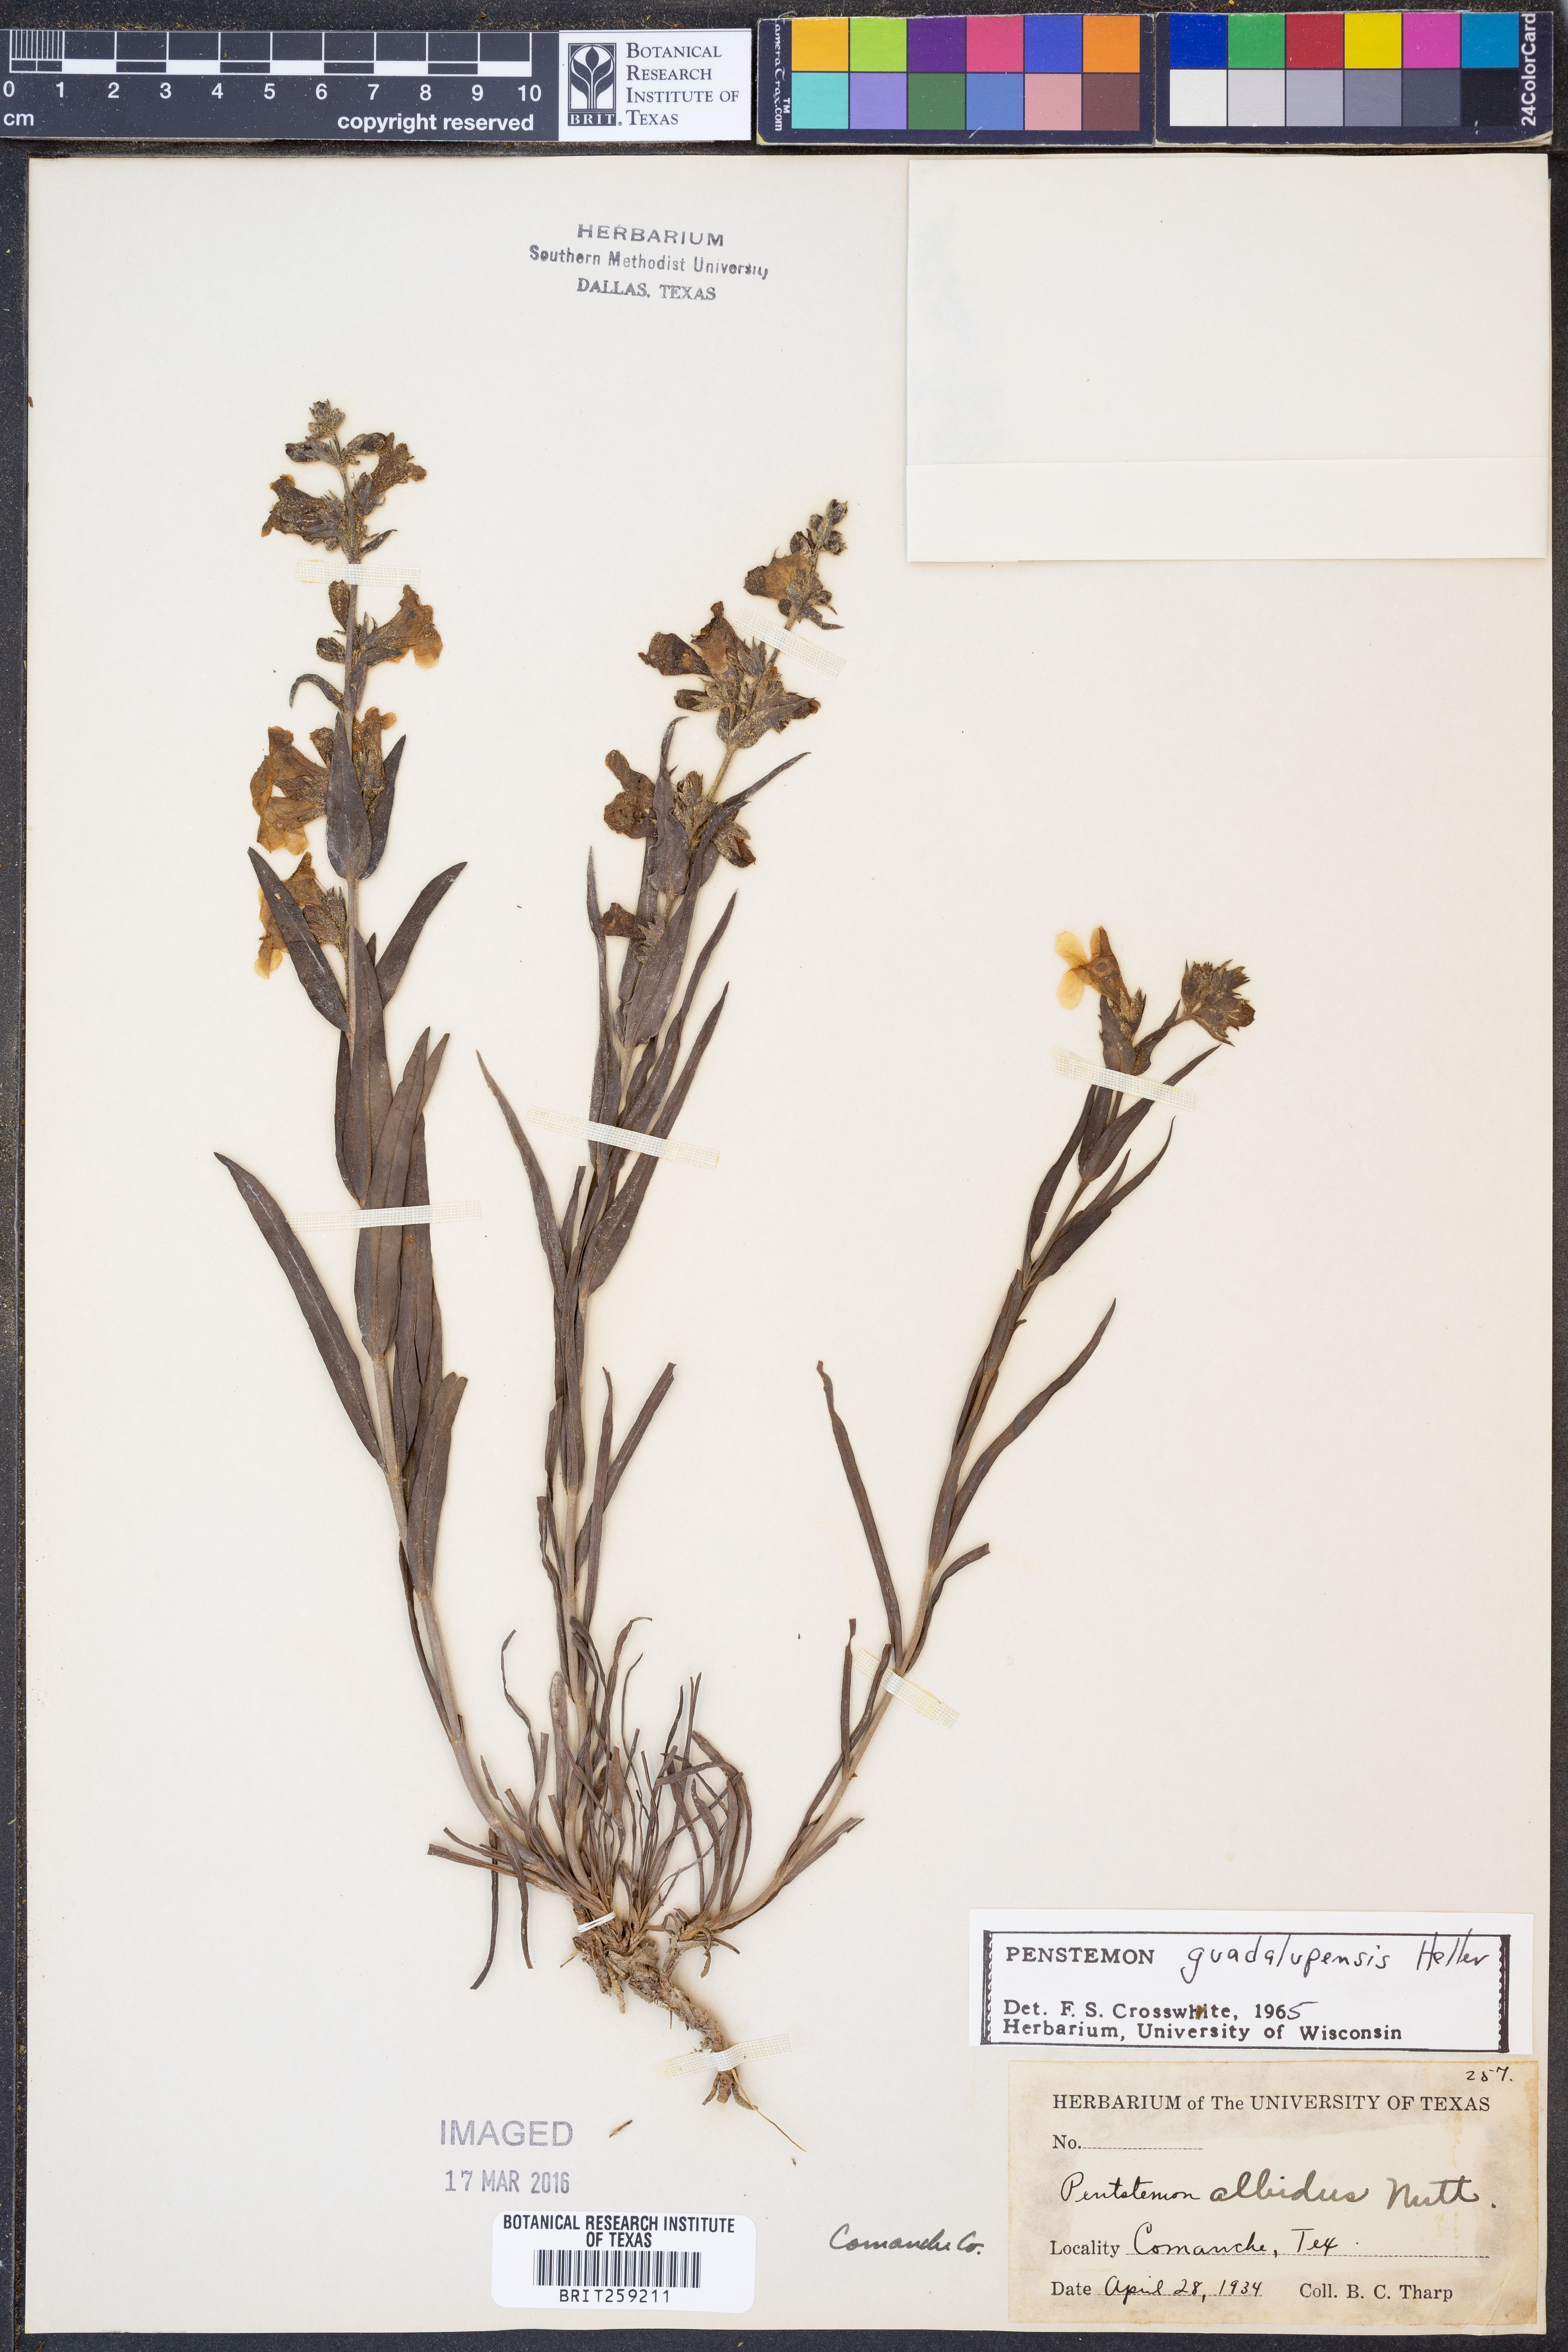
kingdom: Plantae
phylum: Tracheophyta
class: Magnoliopsida
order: Lamiales
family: Plantaginaceae
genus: Penstemon
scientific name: Penstemon guadalupensis
